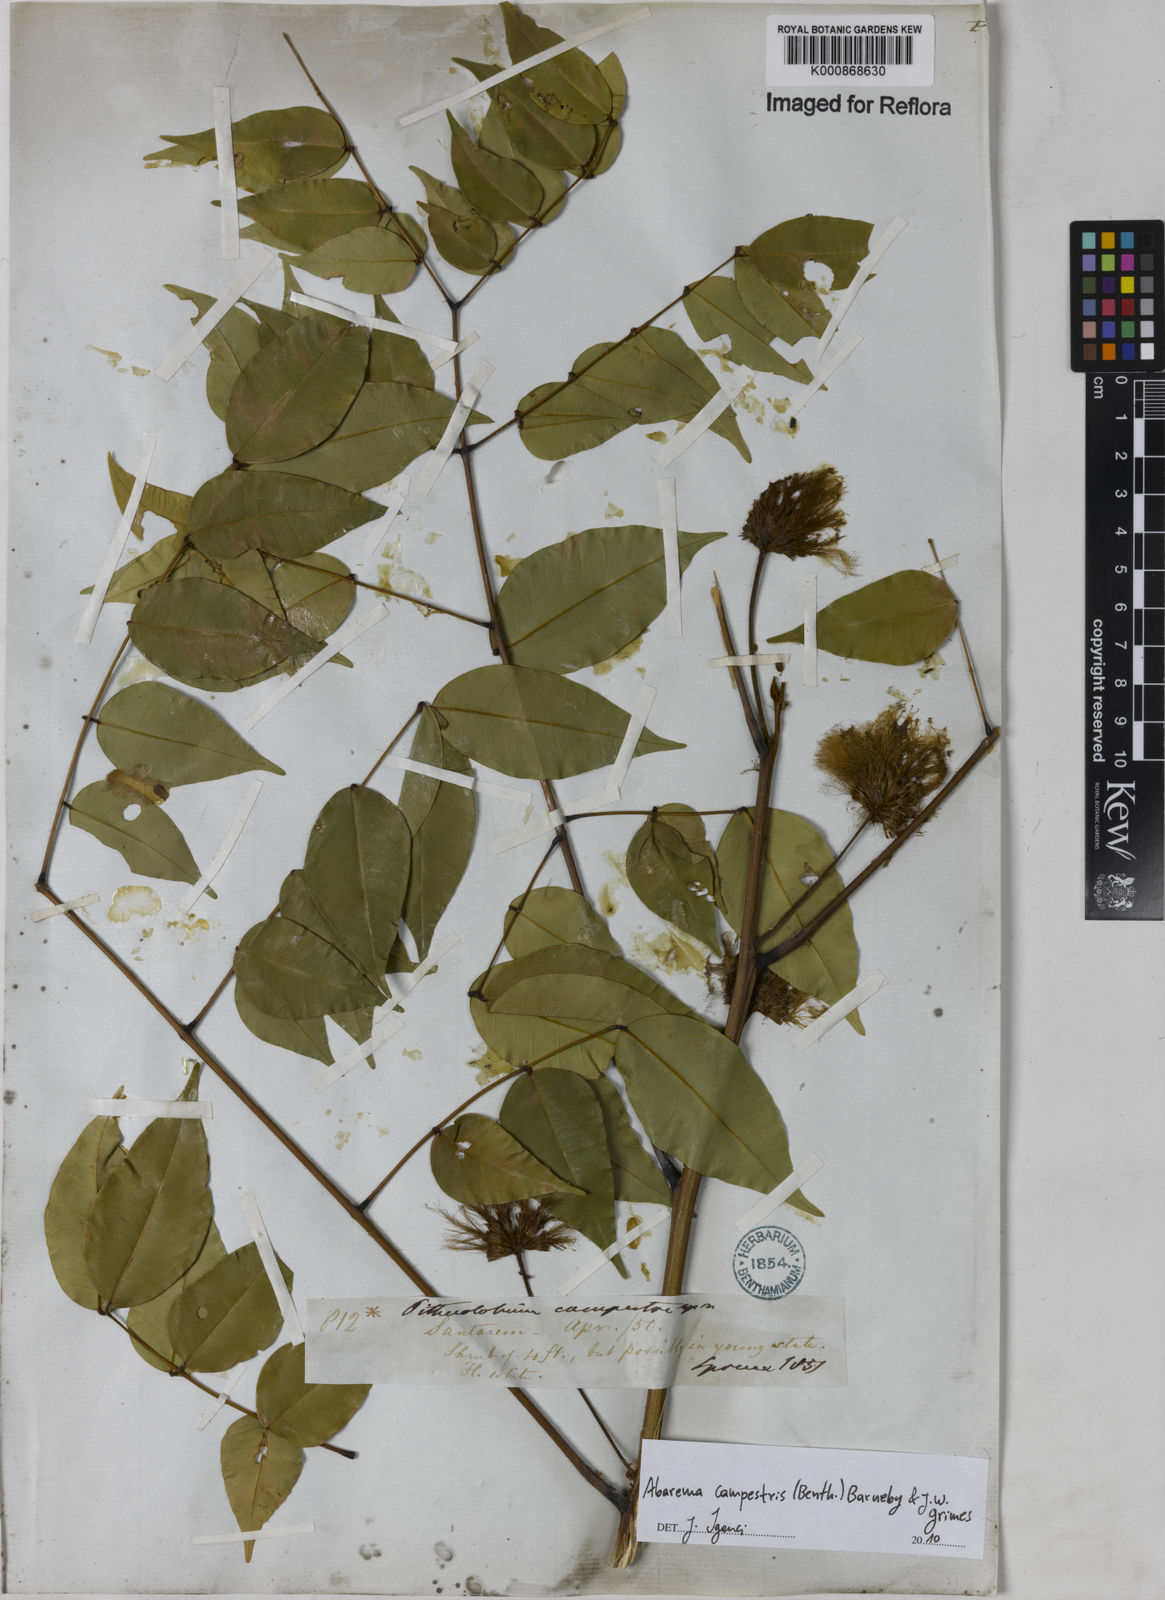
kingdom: Plantae
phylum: Tracheophyta
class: Magnoliopsida
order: Fabales
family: Fabaceae
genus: Jupunba
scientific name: Jupunba campestris
